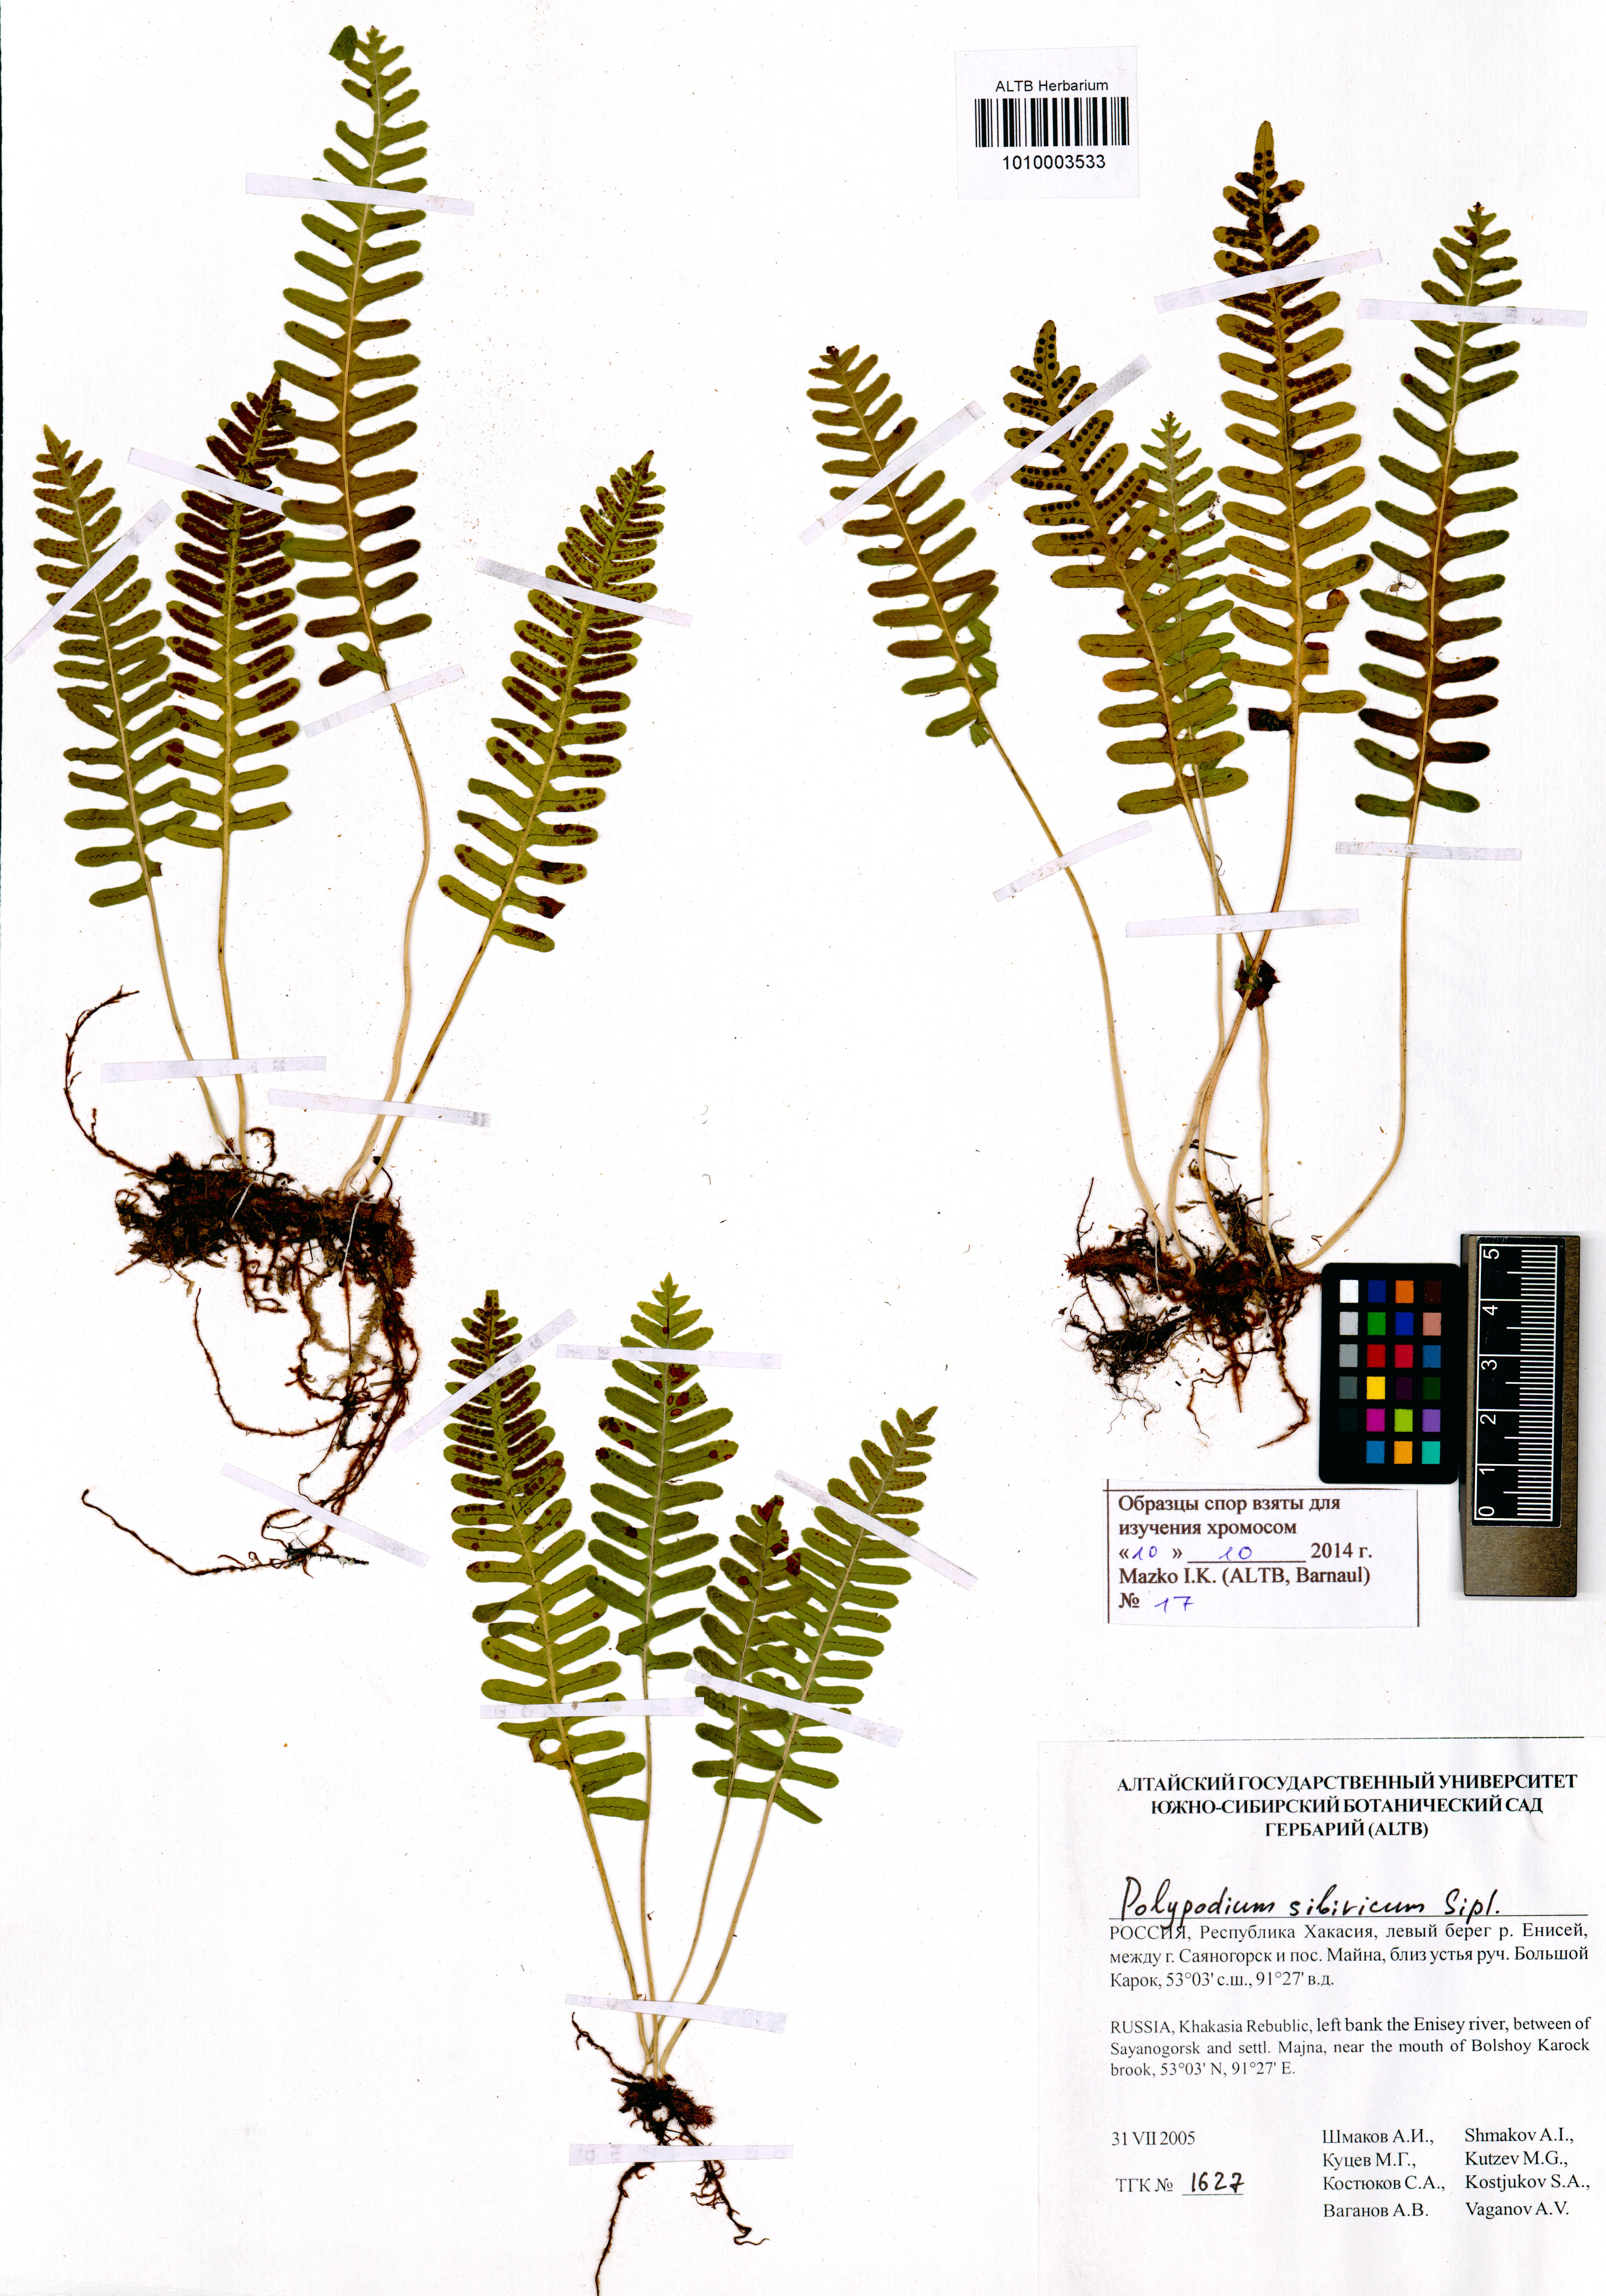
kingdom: Plantae
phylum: Tracheophyta
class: Polypodiopsida
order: Polypodiales
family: Polypodiaceae
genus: Polypodium
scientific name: Polypodium sibiricum
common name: Siberian polypody
